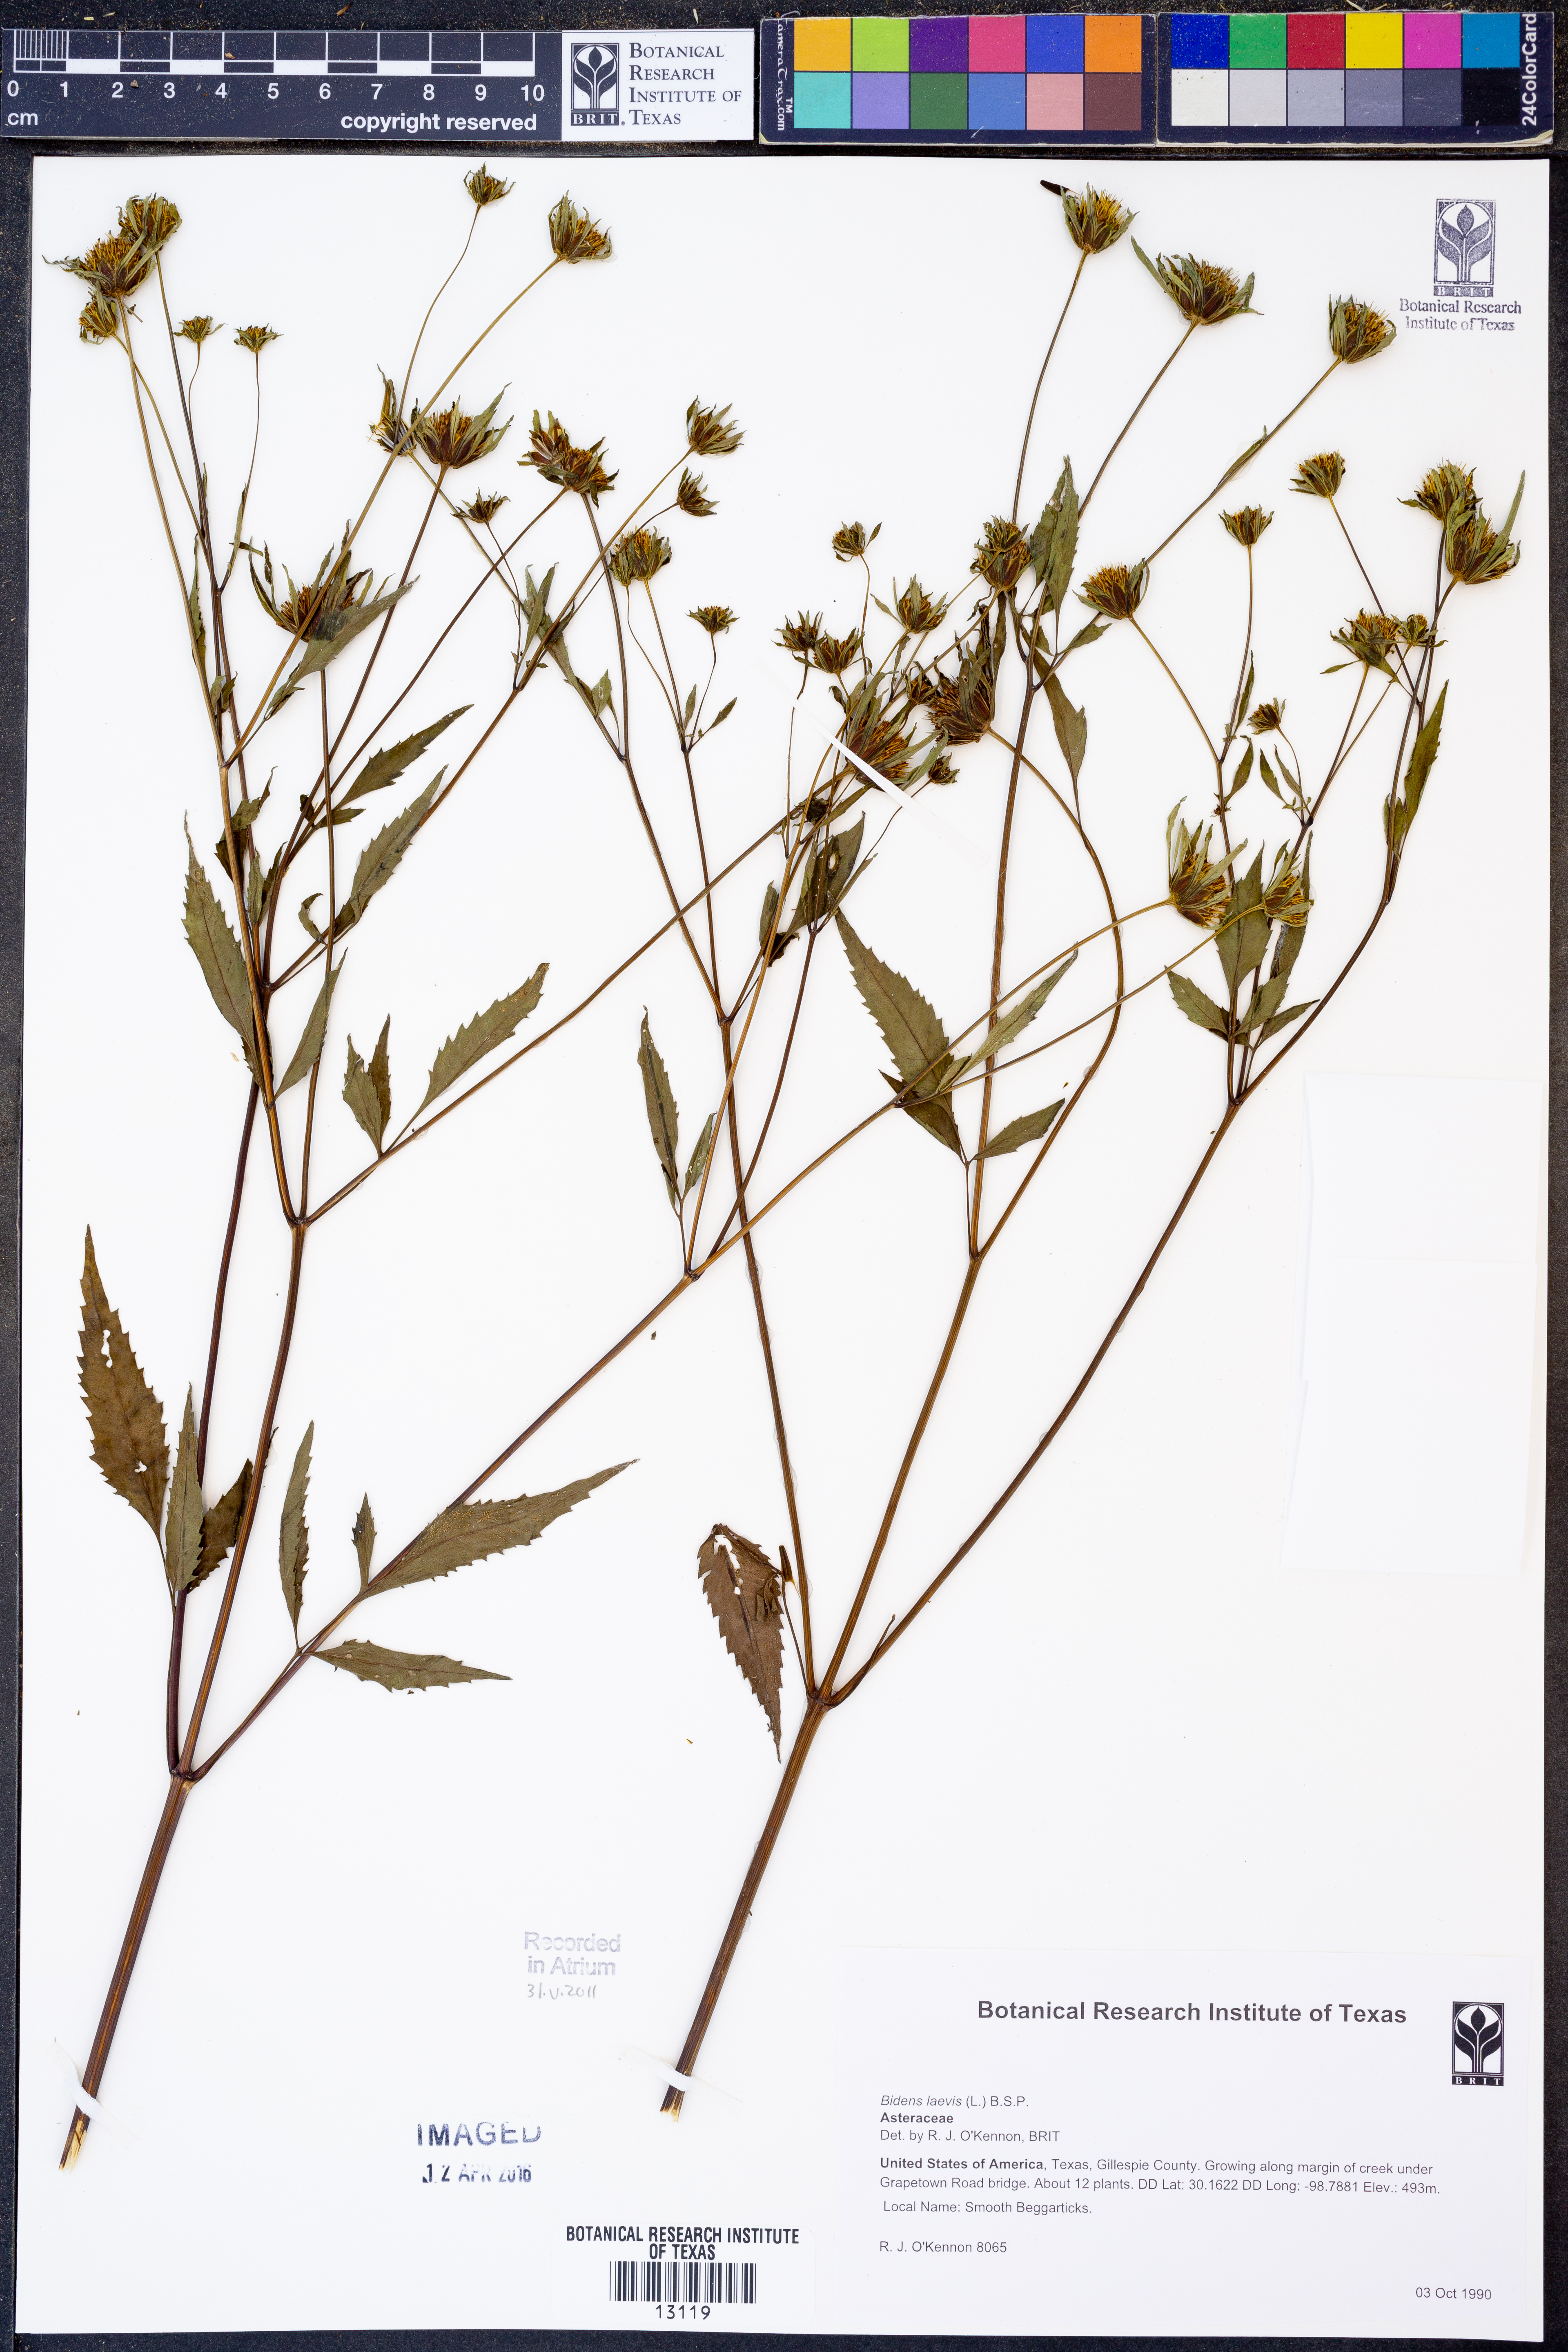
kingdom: Plantae
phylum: Tracheophyta
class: Magnoliopsida
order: Asterales
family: Asteraceae
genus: Bidens
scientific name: Bidens laevis
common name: Larger bur-marigold
